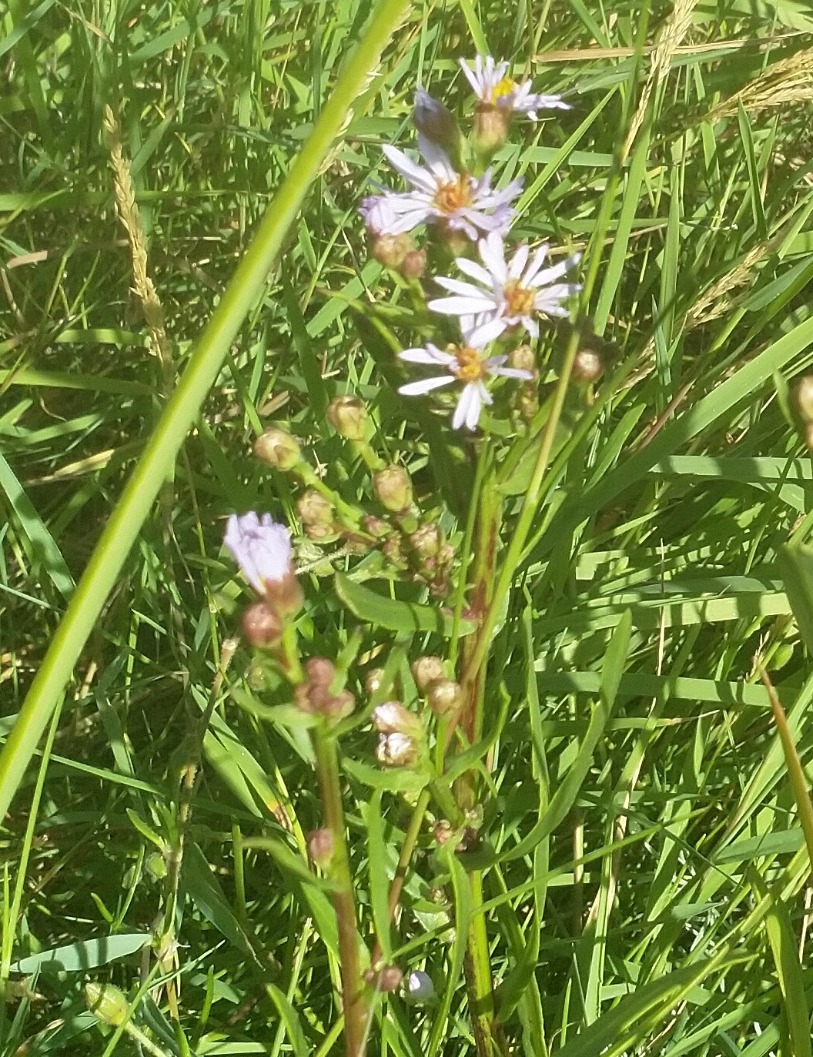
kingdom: Plantae
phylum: Tracheophyta
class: Magnoliopsida
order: Asterales
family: Asteraceae
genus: Tripolium
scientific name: Tripolium pannonicum
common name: Strandasters
